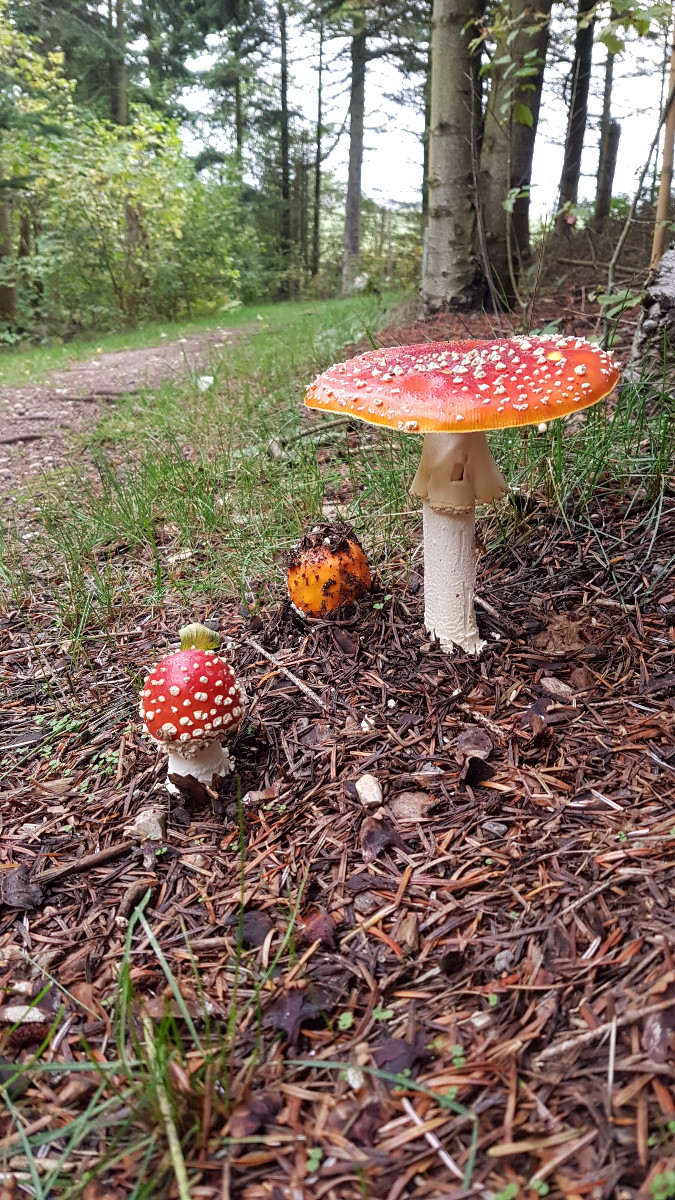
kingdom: Fungi
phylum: Basidiomycota
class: Agaricomycetes
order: Agaricales
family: Amanitaceae
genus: Amanita
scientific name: Amanita muscaria
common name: rød fluesvamp
